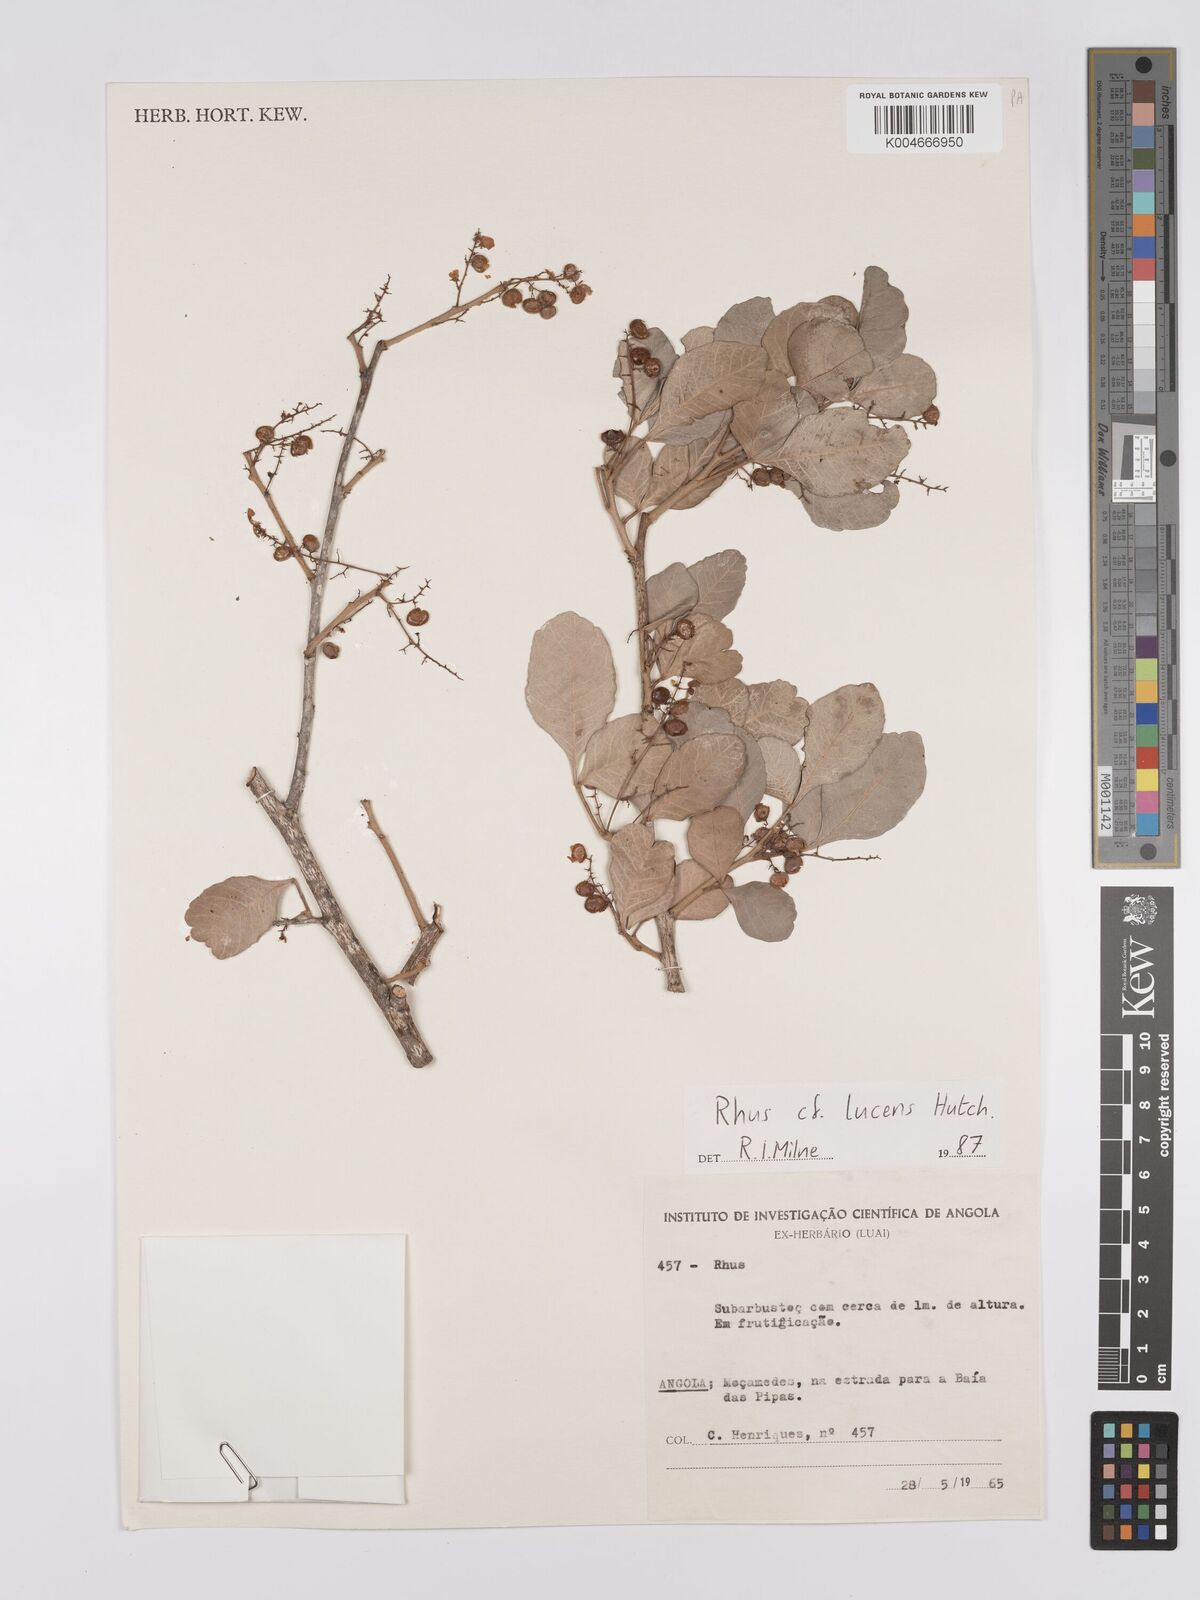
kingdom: Plantae
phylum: Tracheophyta
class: Magnoliopsida
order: Sapindales
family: Anacardiaceae
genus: Searsia
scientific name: Searsia lucens
